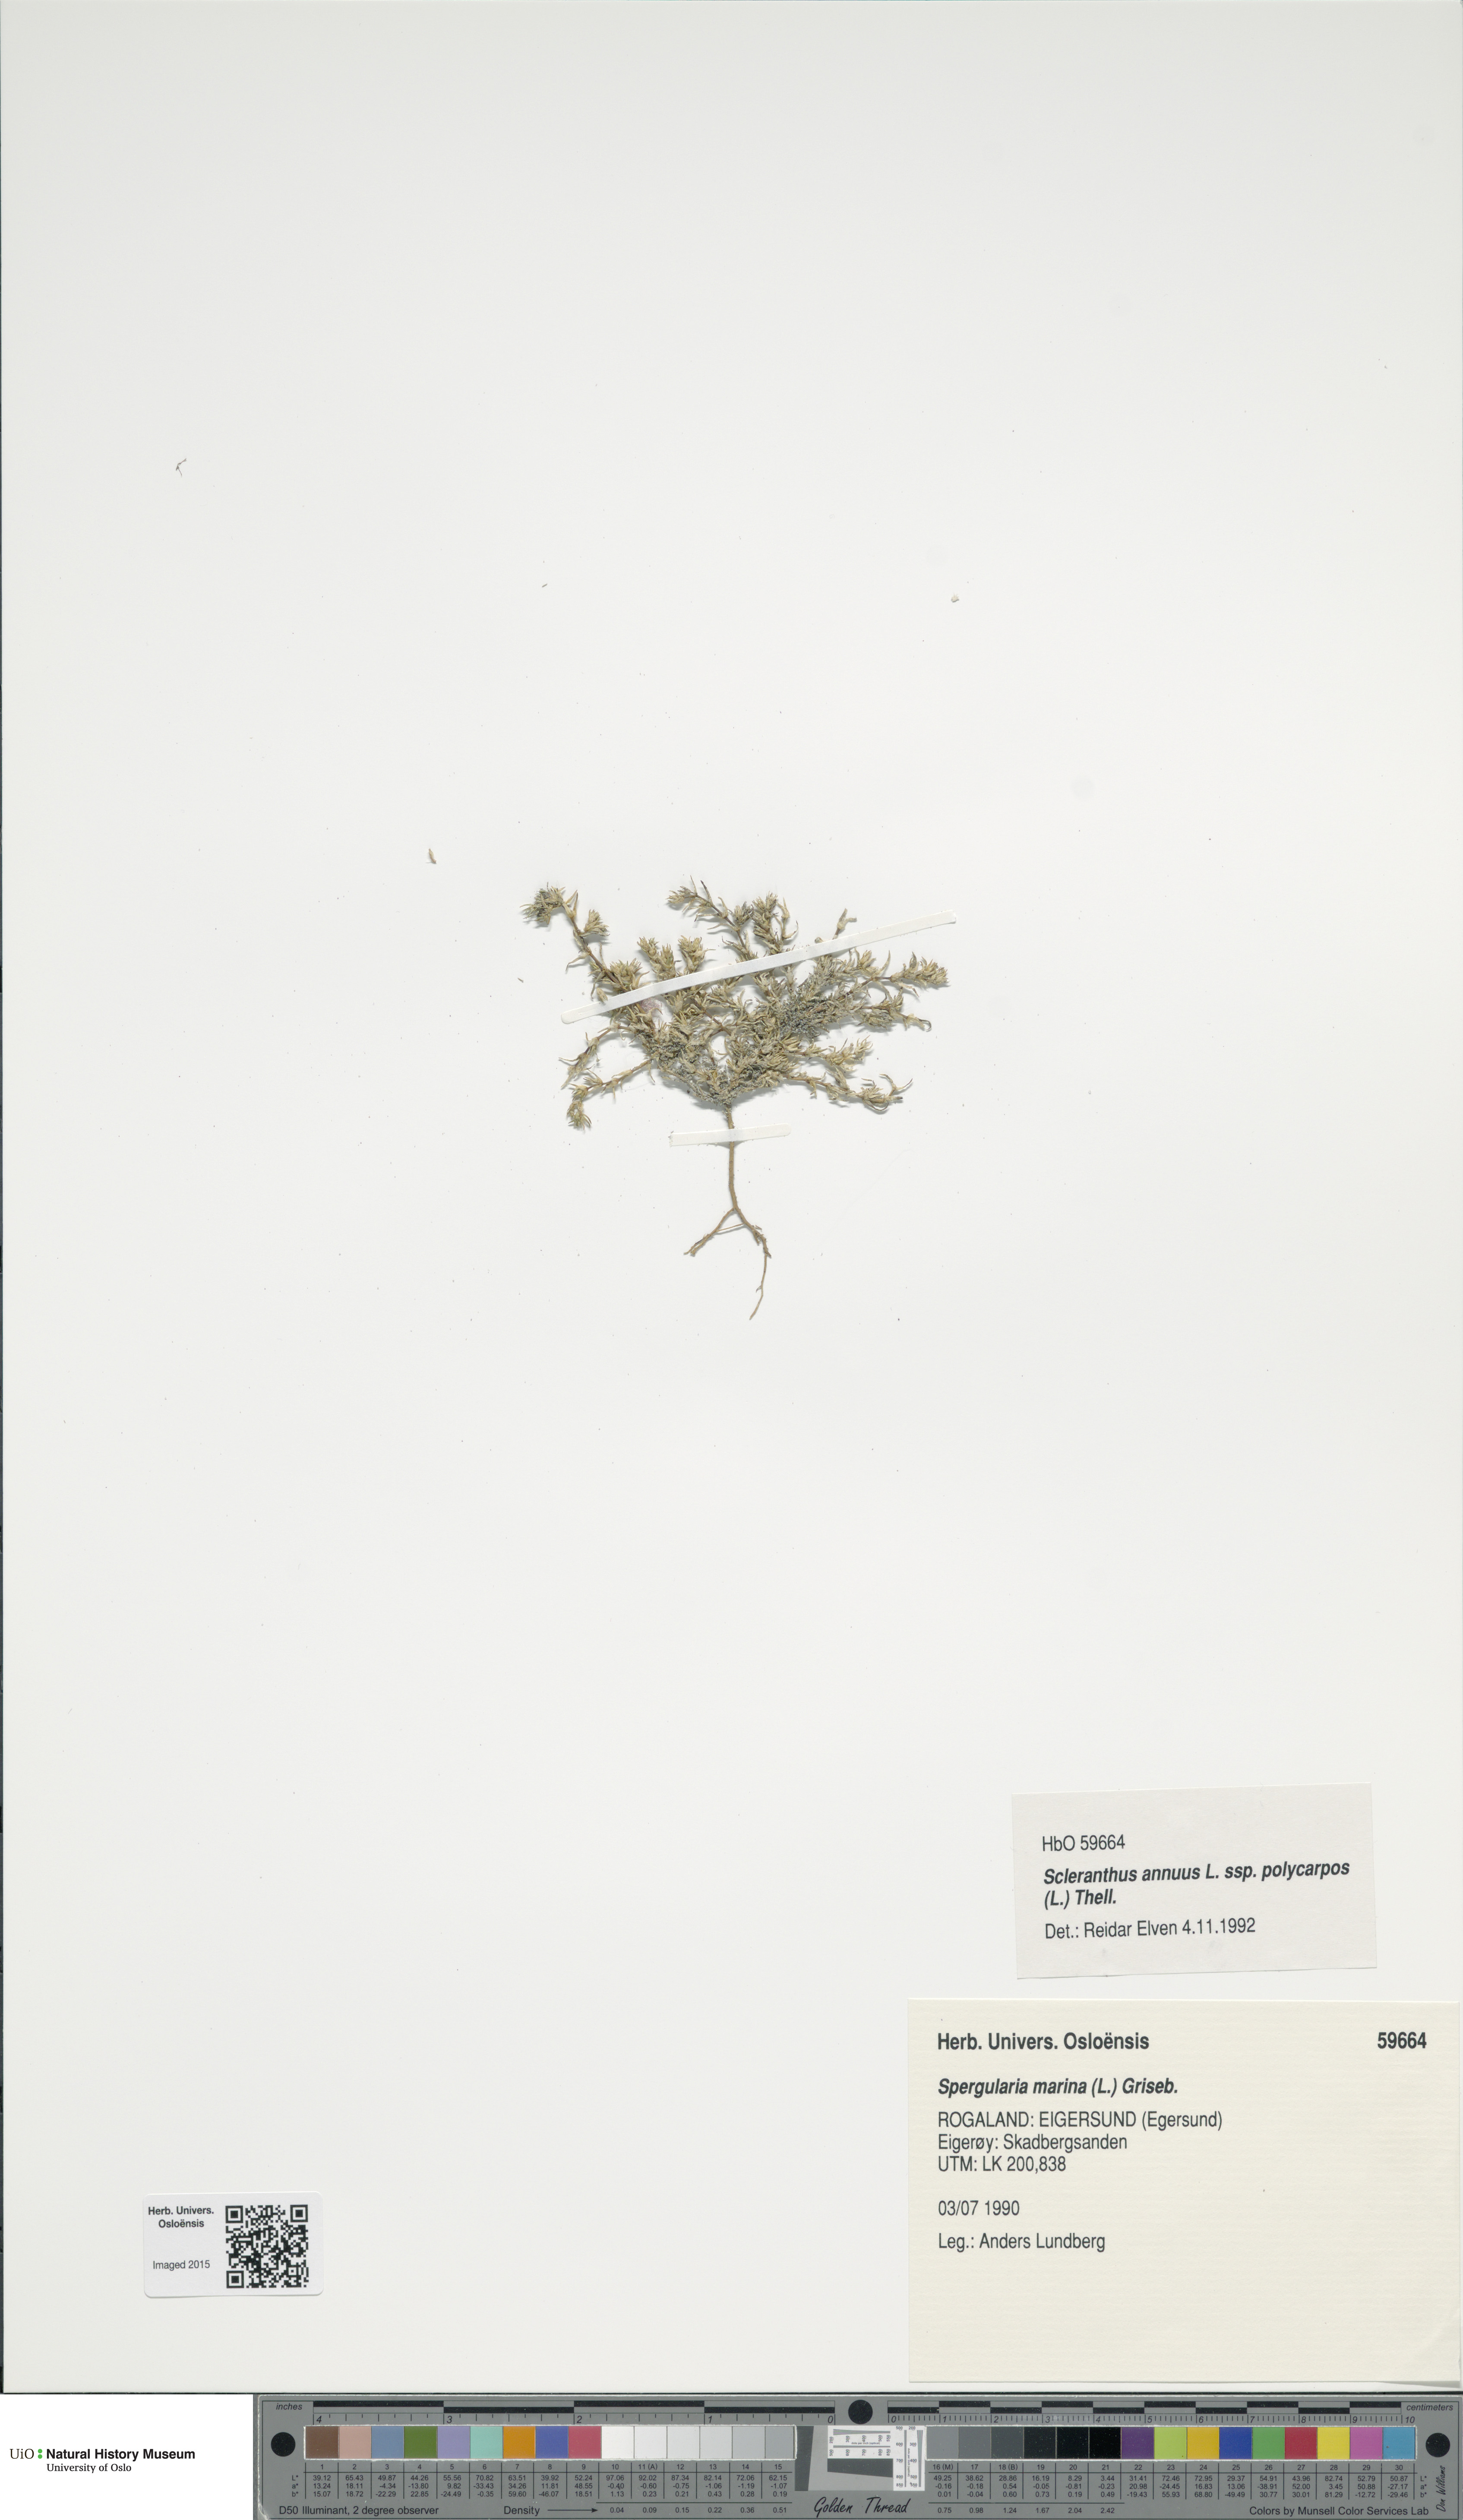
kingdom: Plantae
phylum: Tracheophyta
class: Magnoliopsida
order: Caryophyllales
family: Caryophyllaceae
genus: Scleranthus
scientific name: Scleranthus annuus
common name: Annual knawel
